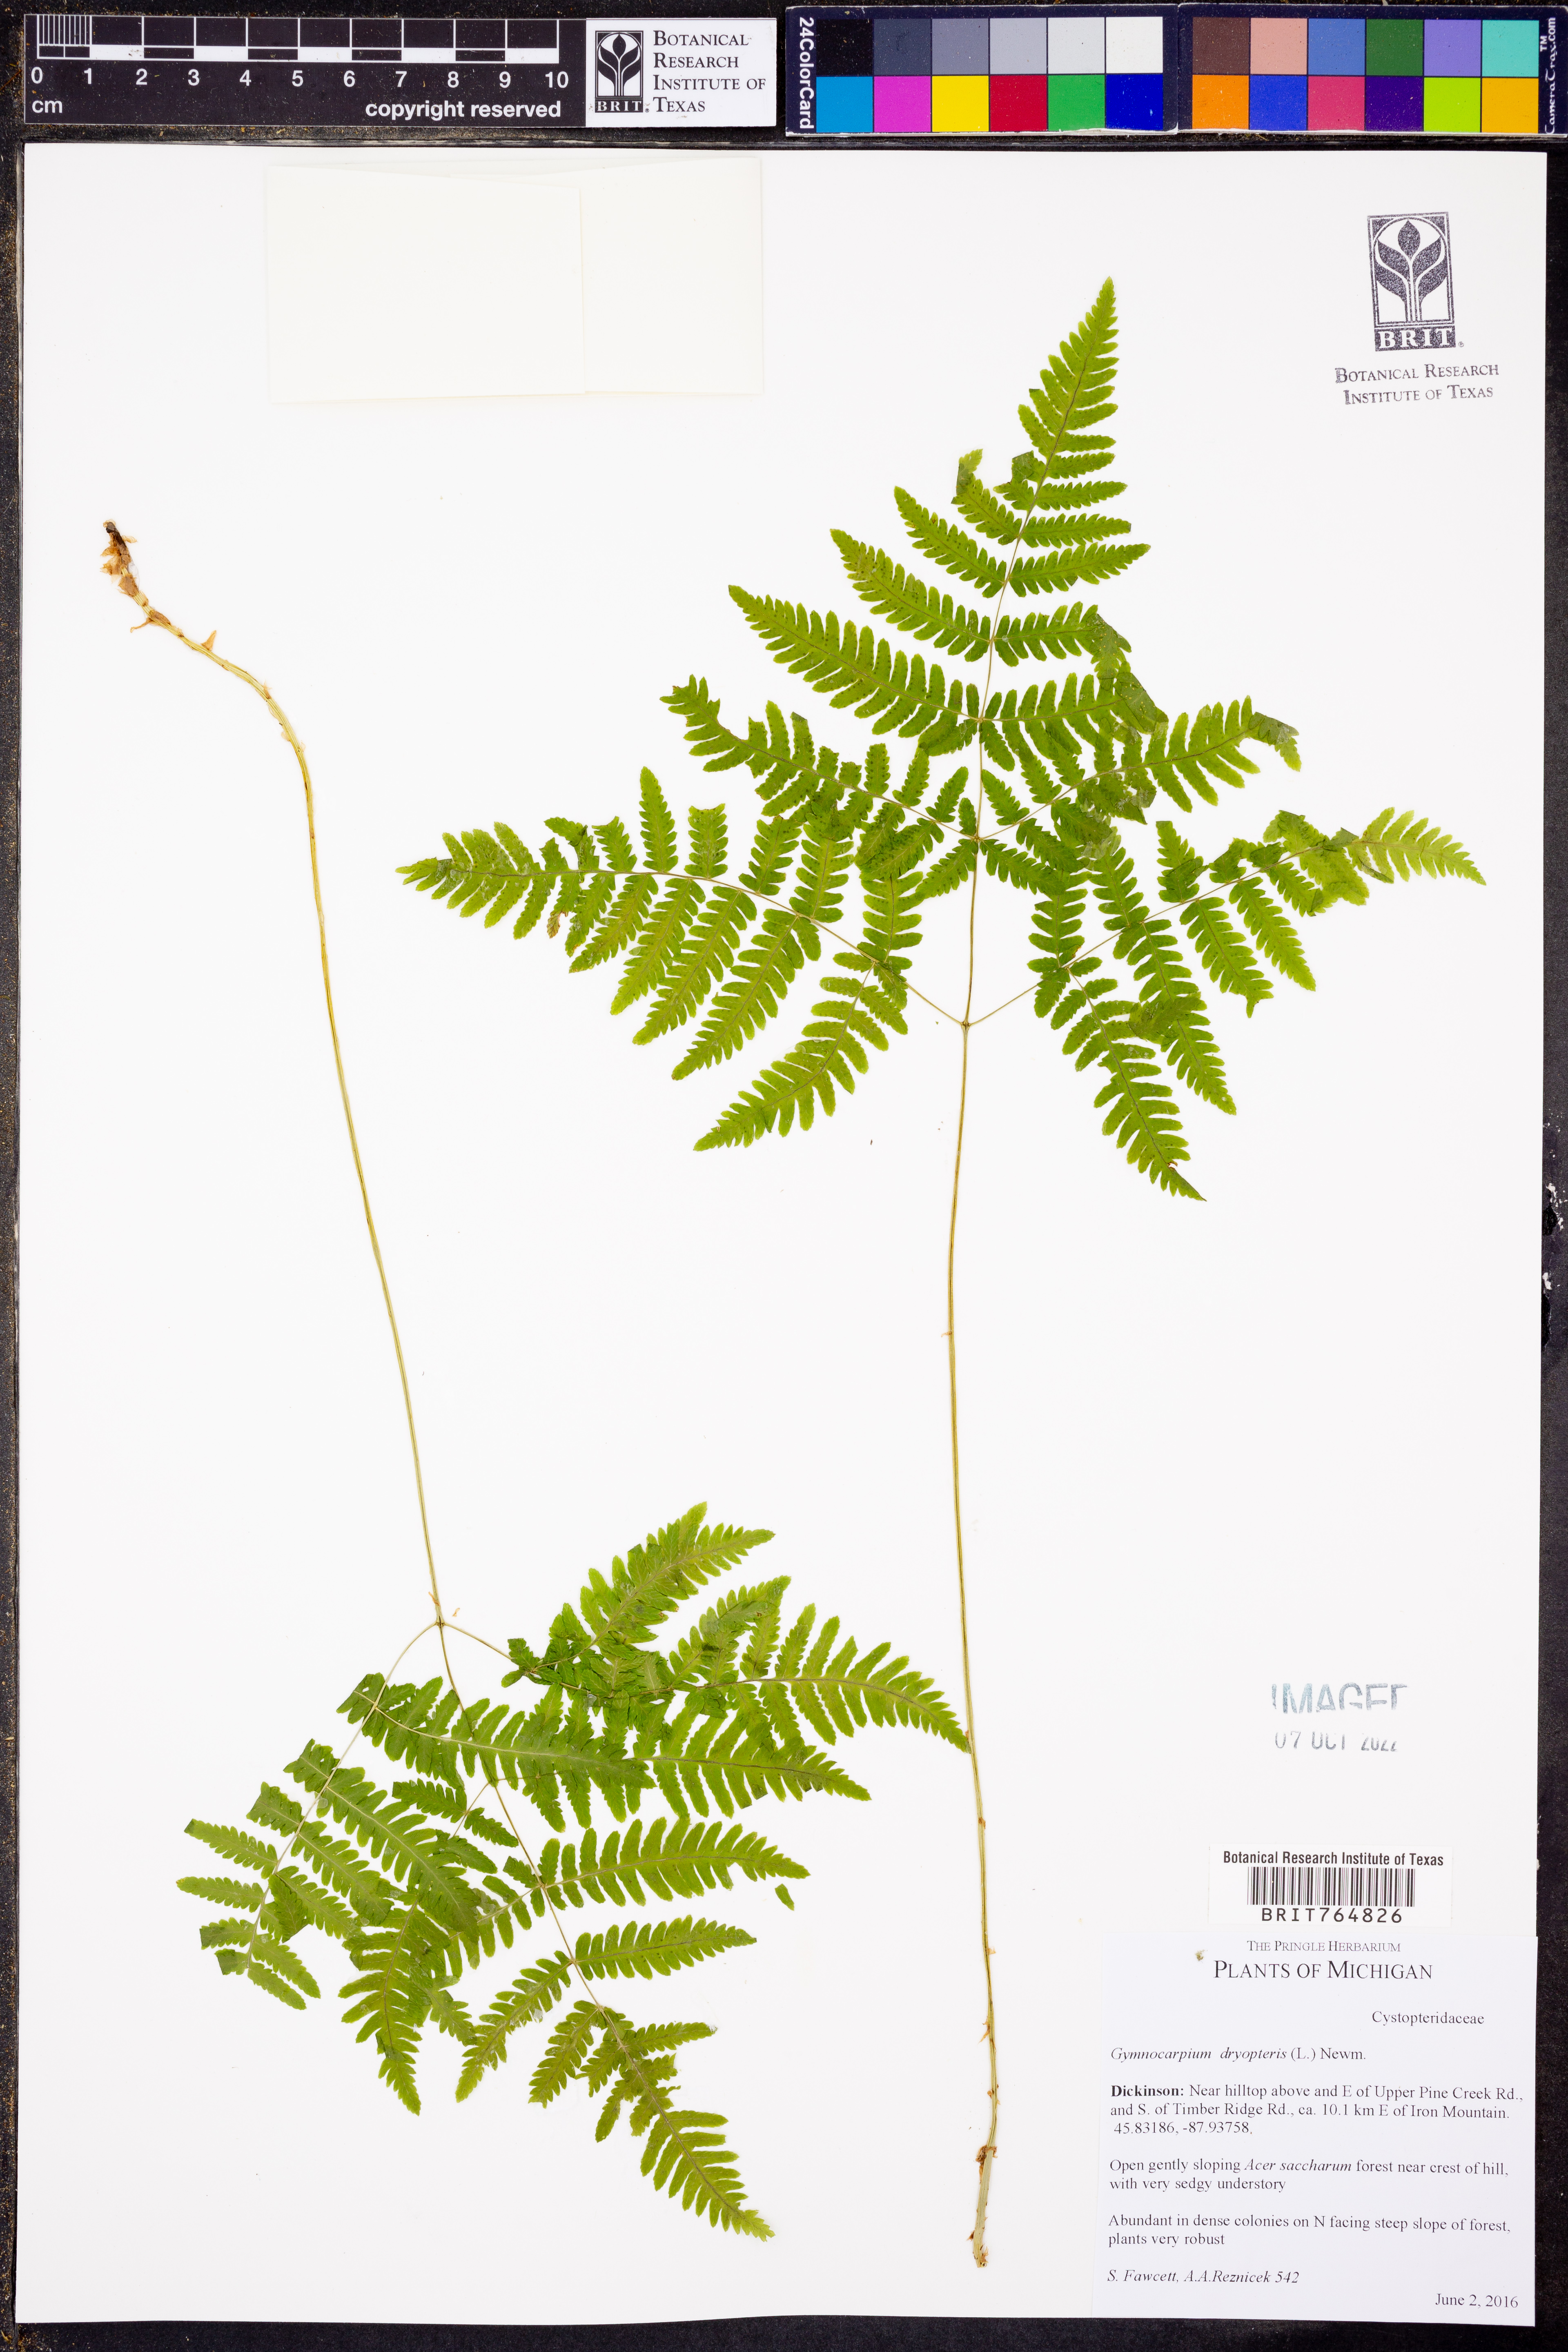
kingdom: Plantae
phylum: Tracheophyta
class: Polypodiopsida
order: Polypodiales
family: Cystopteridaceae
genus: Gymnocarpium
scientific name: Gymnocarpium dryopteris
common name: Oak fern
